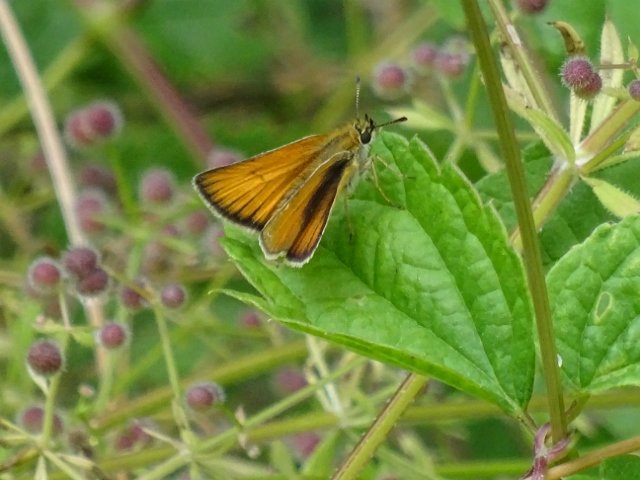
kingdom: Animalia
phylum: Arthropoda
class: Insecta
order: Lepidoptera
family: Hesperiidae
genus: Thymelicus
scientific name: Thymelicus lineola
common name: European Skipper
